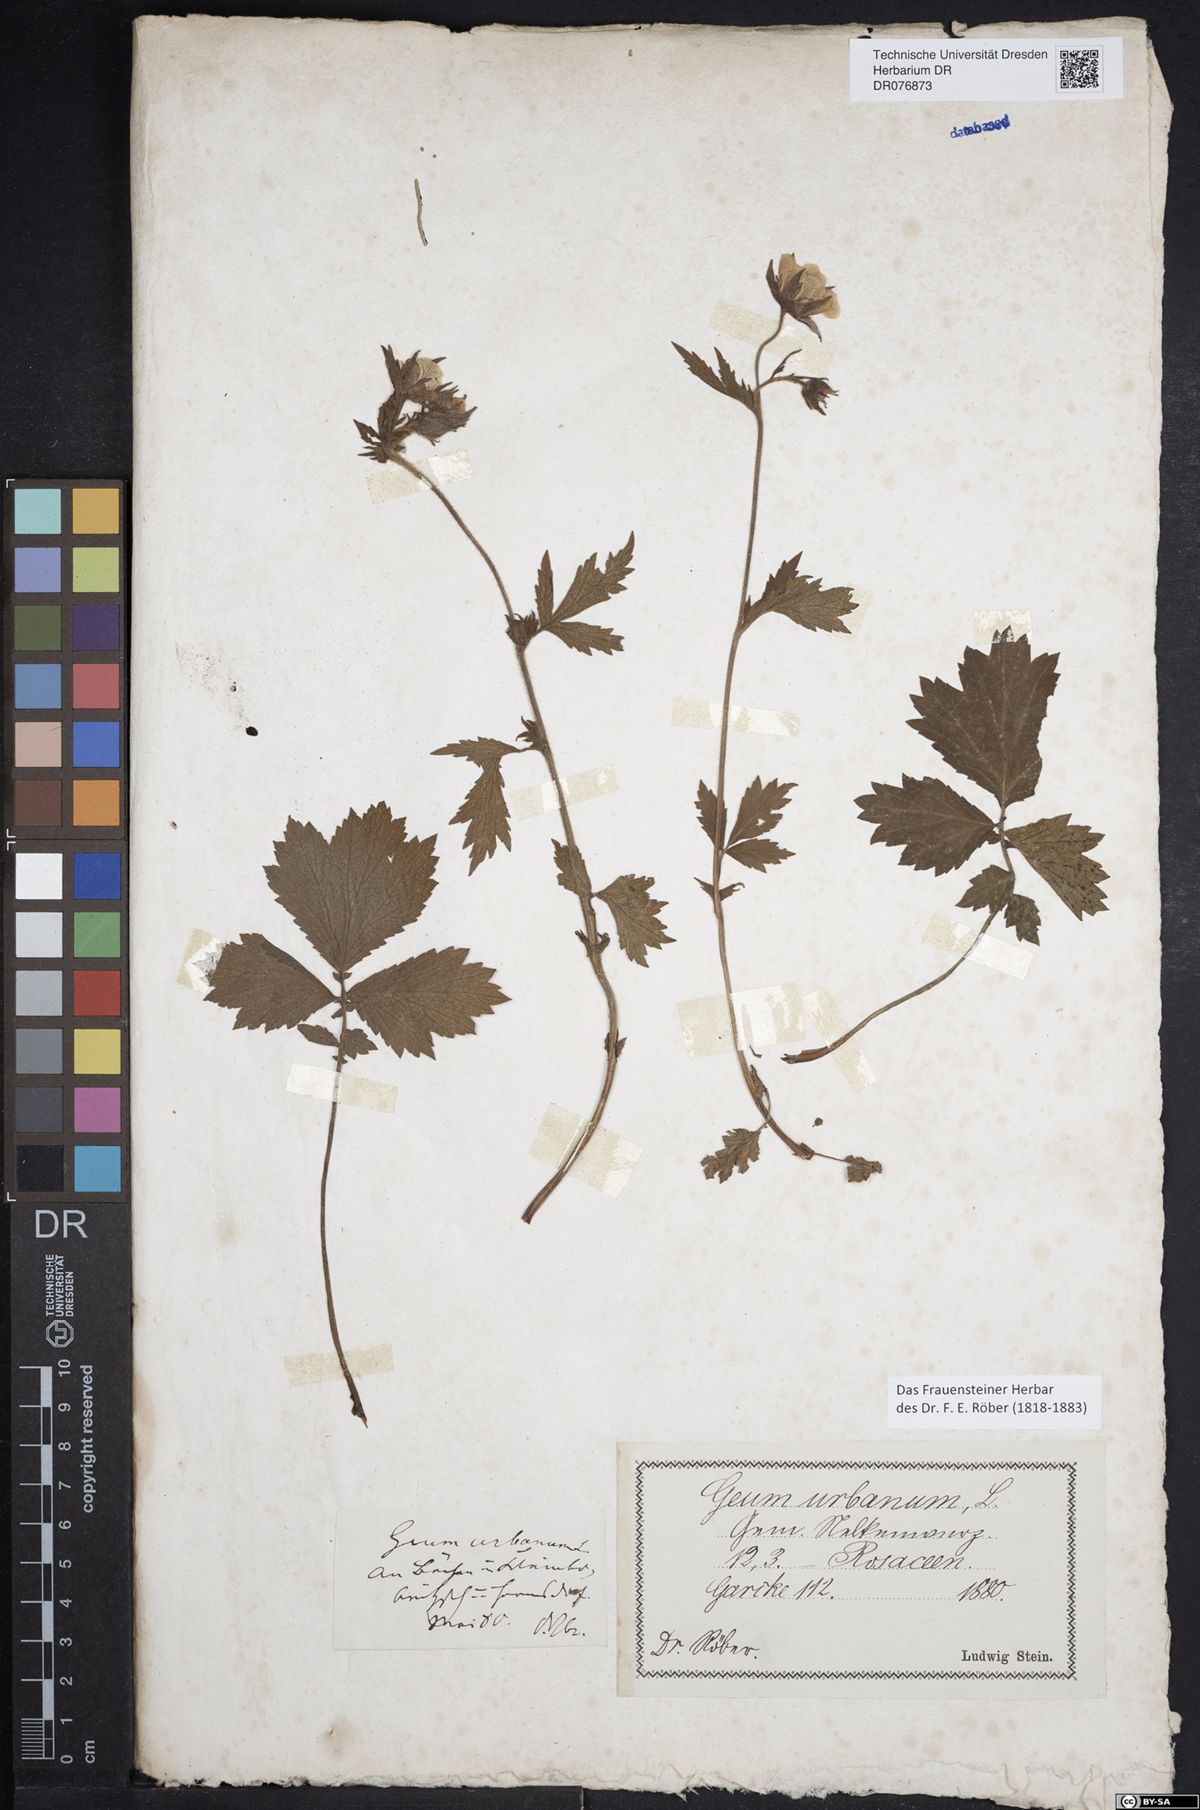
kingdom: Plantae
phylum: Tracheophyta
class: Magnoliopsida
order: Rosales
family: Rosaceae
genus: Geum
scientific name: Geum rivale
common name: Water avens
